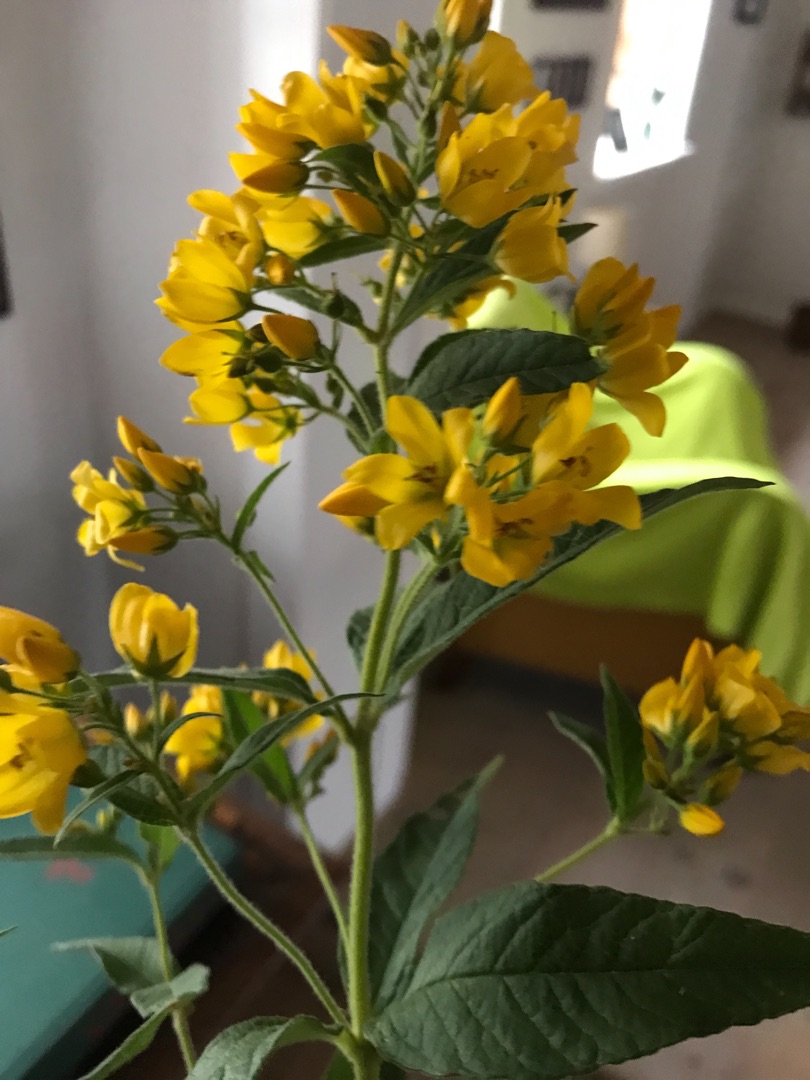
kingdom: Plantae
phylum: Tracheophyta
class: Magnoliopsida
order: Ericales
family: Primulaceae
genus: Lysimachia
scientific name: Lysimachia vulgaris
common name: Almindelig fredløs
